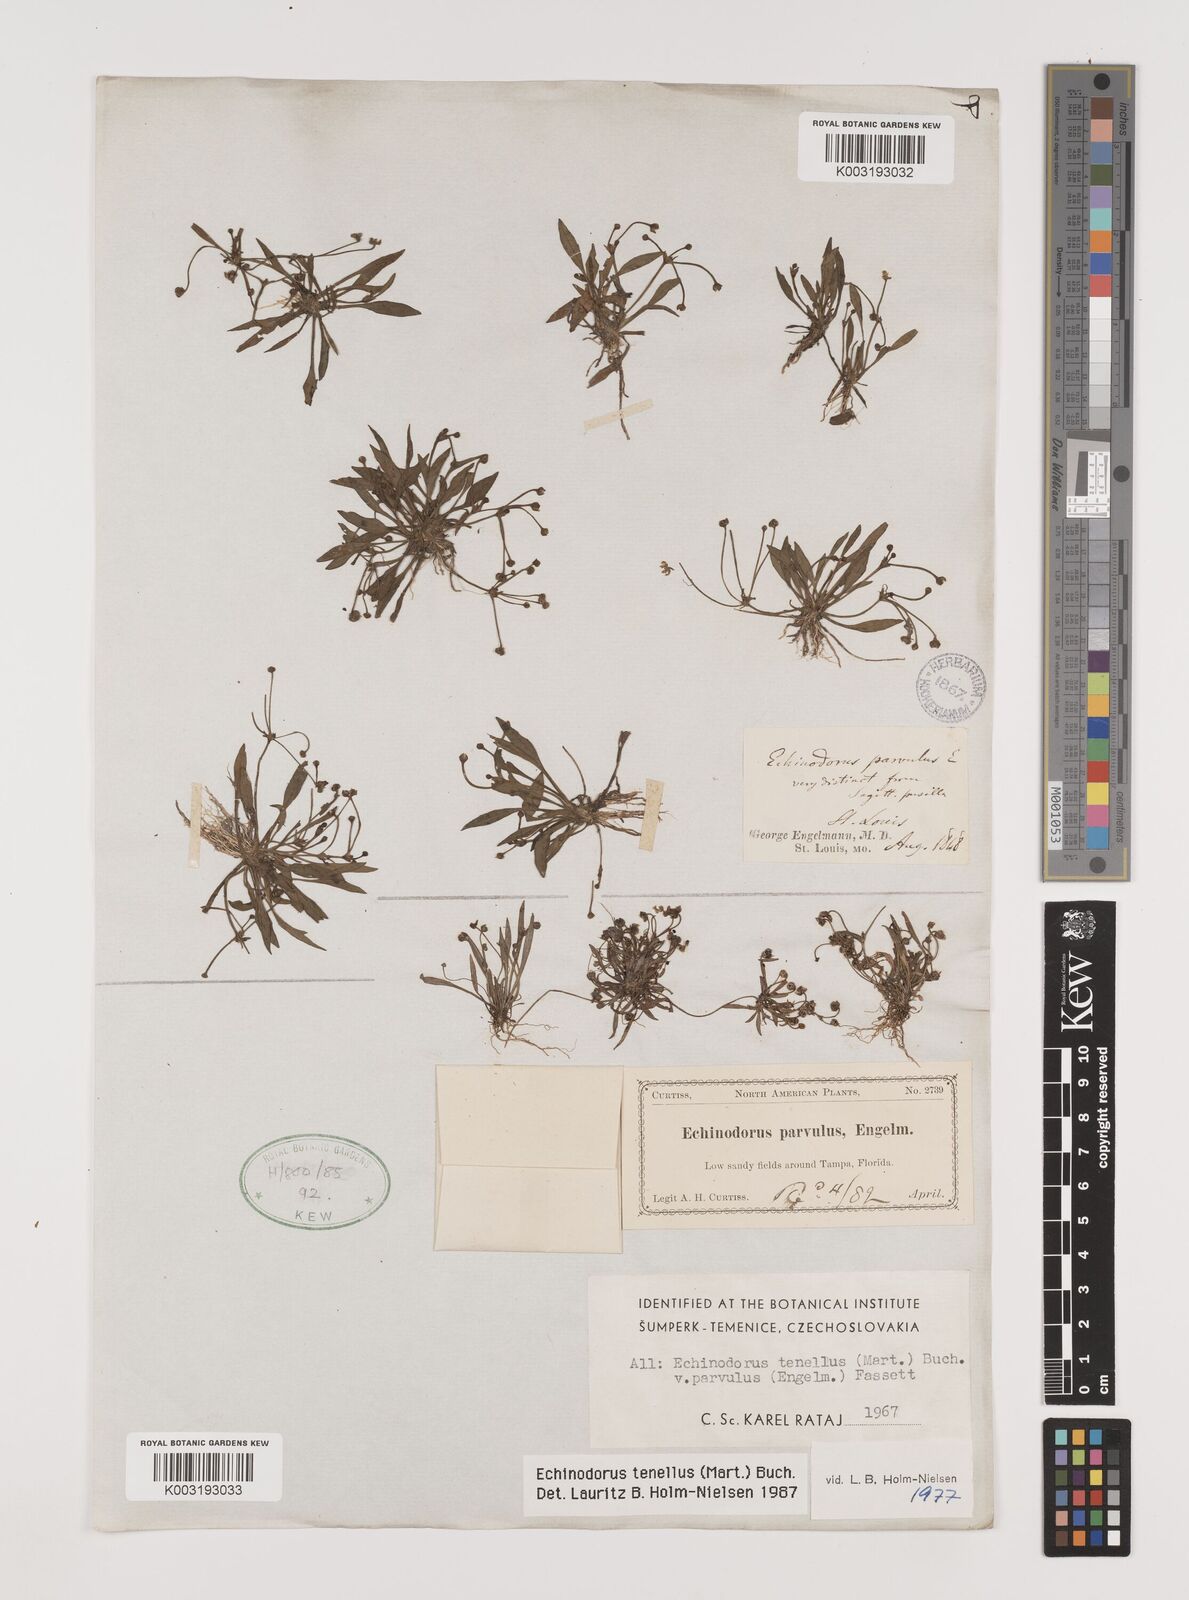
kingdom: Plantae
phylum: Tracheophyta
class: Liliopsida
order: Alismatales
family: Alismataceae
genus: Helanthium
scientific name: Helanthium tenellum
